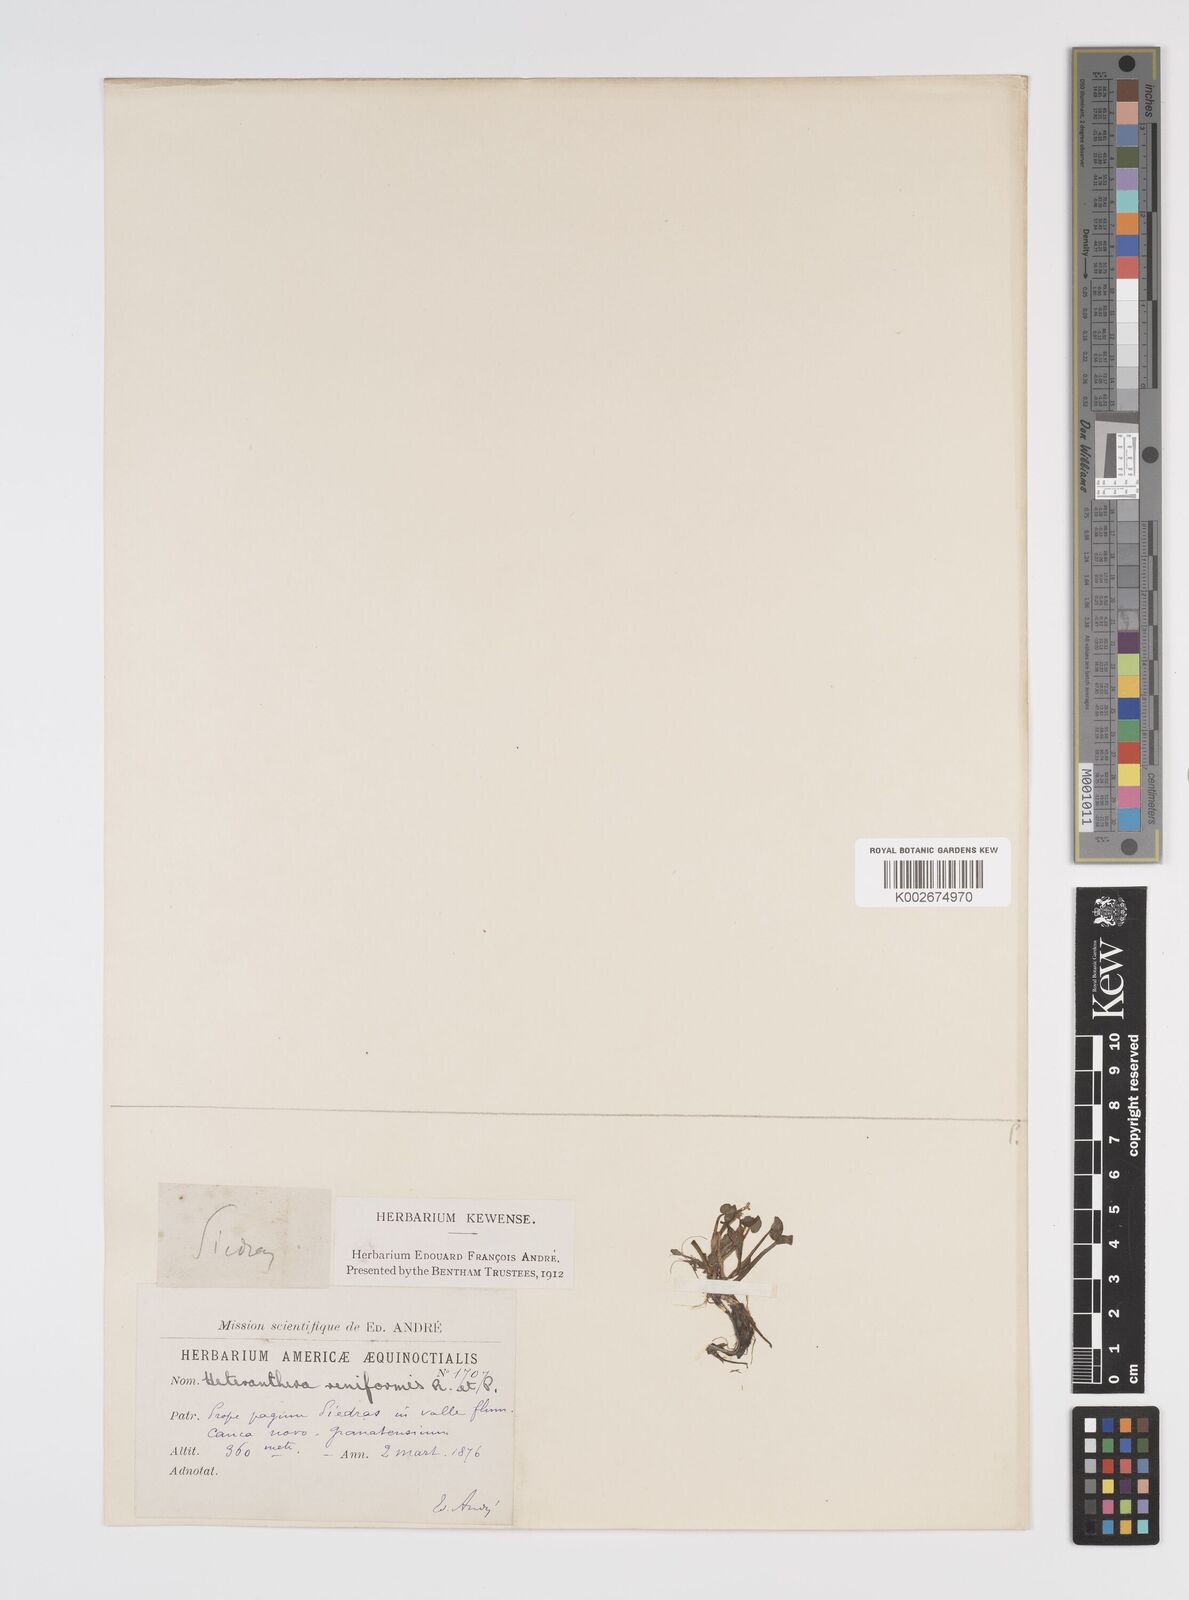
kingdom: Plantae
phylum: Tracheophyta
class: Liliopsida
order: Commelinales
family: Pontederiaceae
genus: Heteranthera
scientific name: Heteranthera reniformis
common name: Kidneyleaf mudplantain
